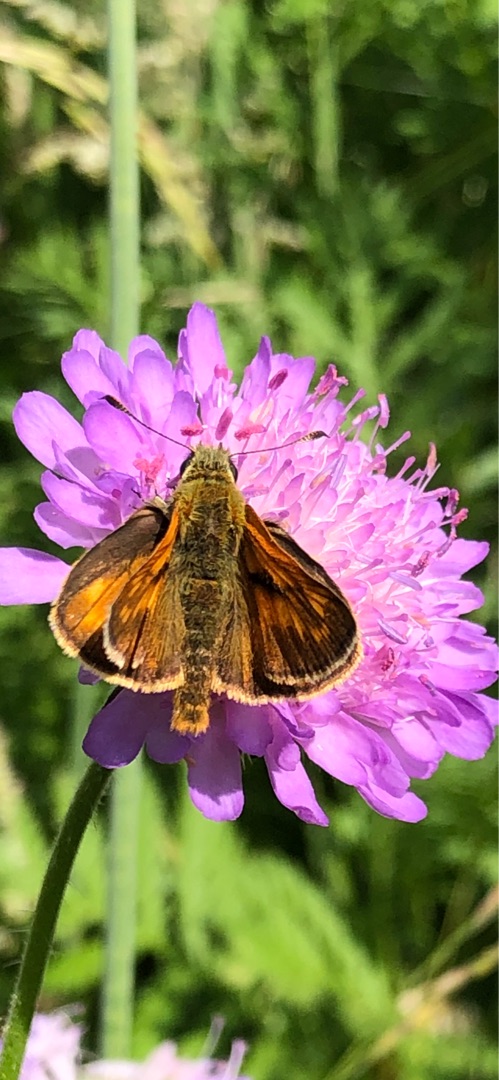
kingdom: Animalia
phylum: Arthropoda
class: Insecta
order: Lepidoptera
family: Hesperiidae
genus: Ochlodes
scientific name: Ochlodes venata
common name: Stor bredpande
